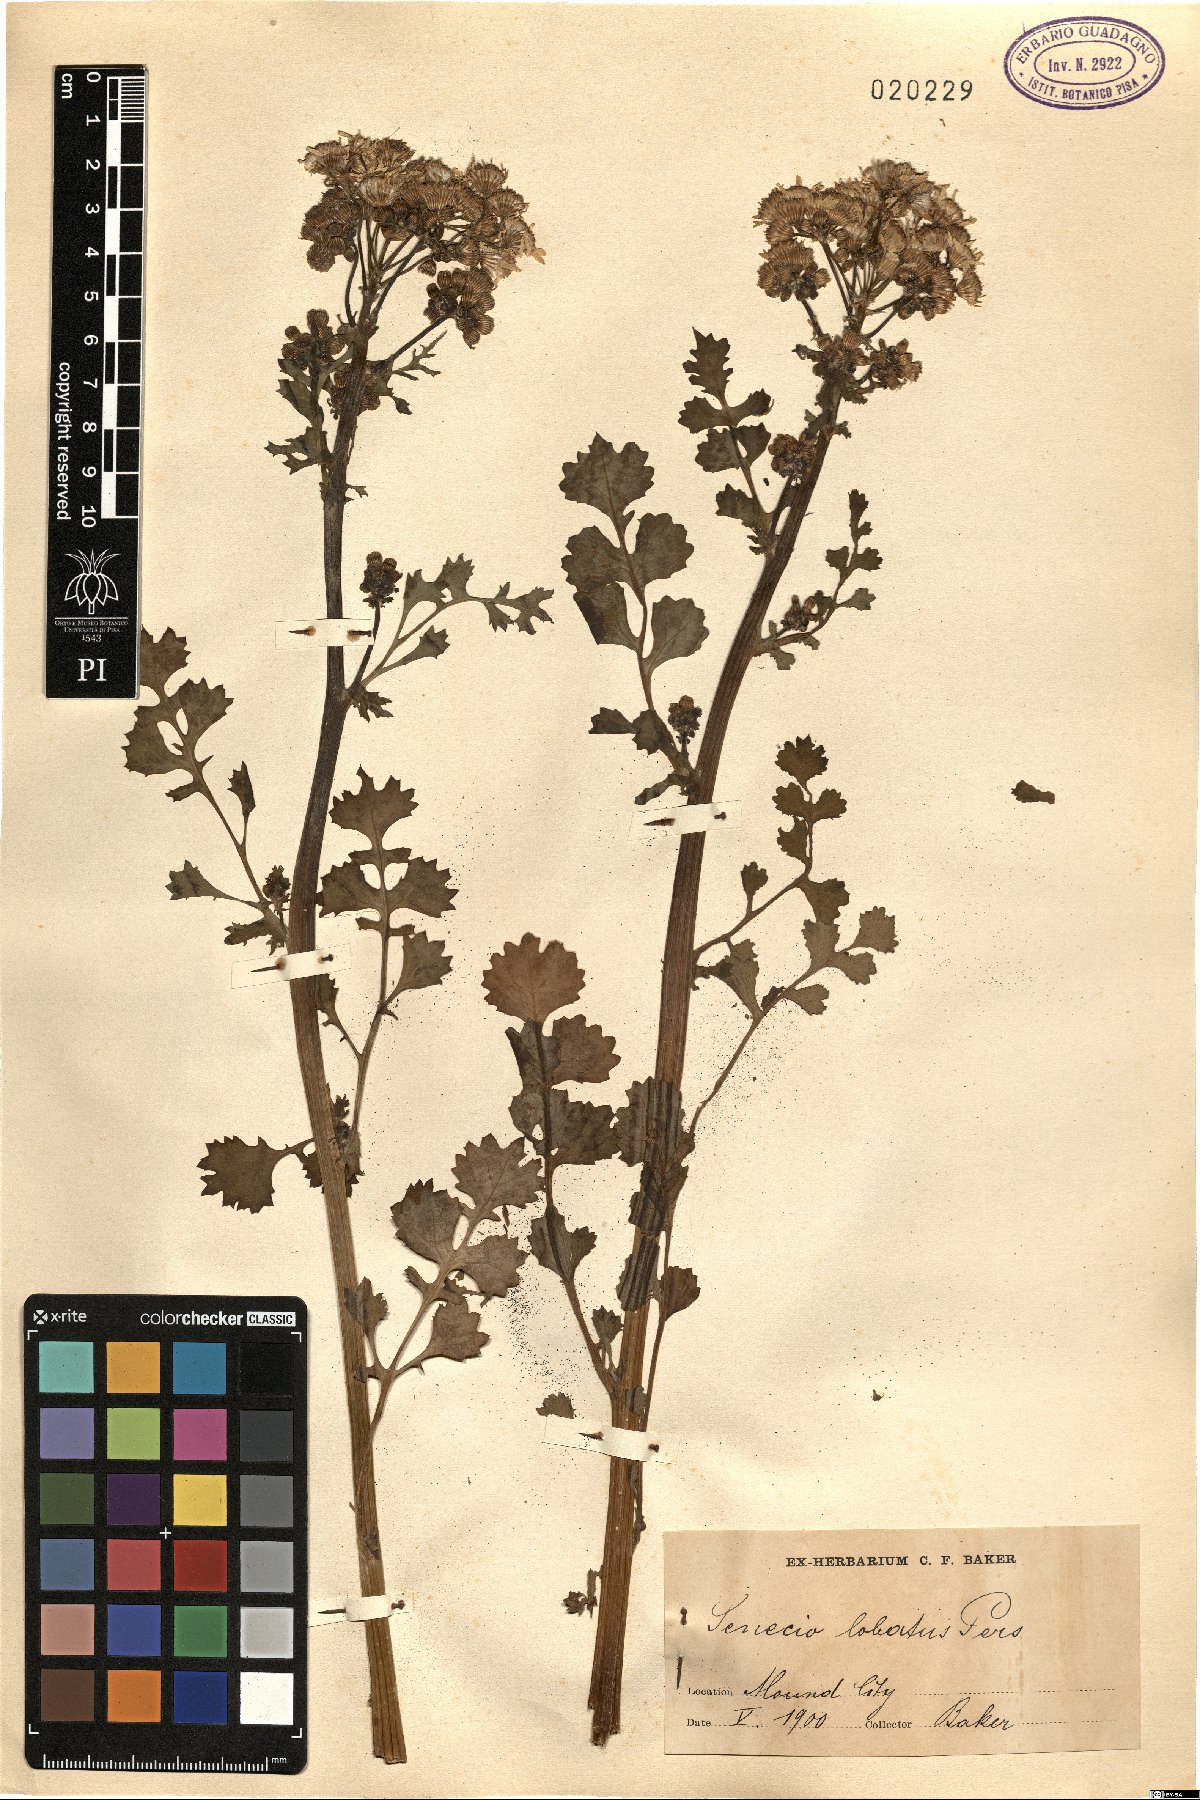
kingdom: Plantae
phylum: Tracheophyta
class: Magnoliopsida
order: Asterales
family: Asteraceae
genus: Packera
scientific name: Packera glabella
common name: Butterweed
